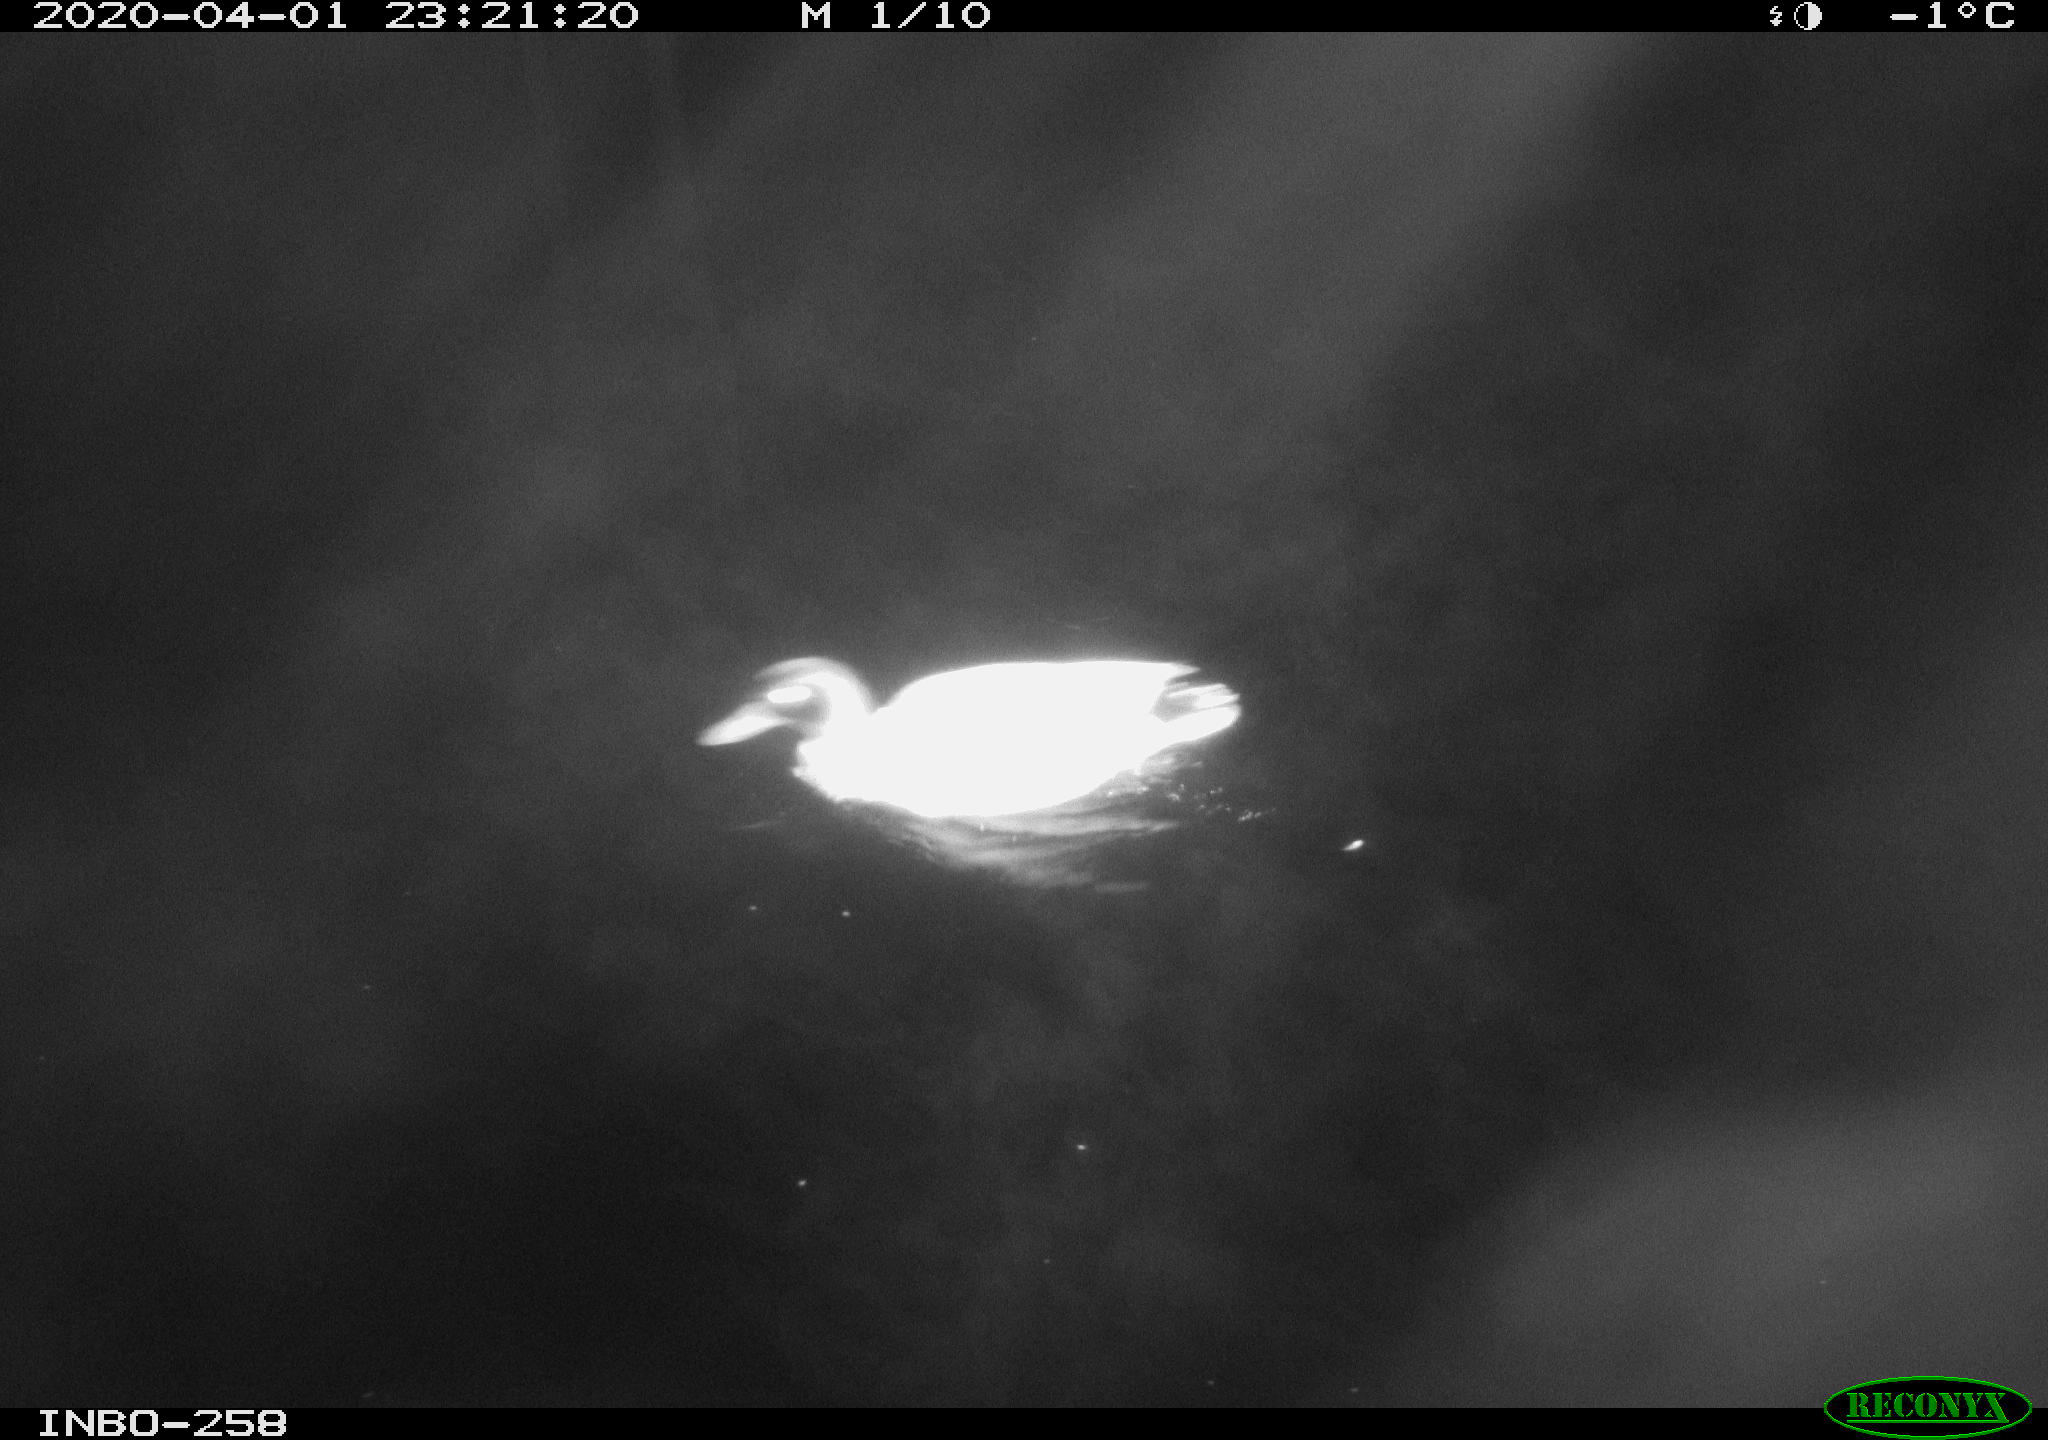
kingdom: Animalia
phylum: Chordata
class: Aves
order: Anseriformes
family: Anatidae
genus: Anas
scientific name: Anas platyrhynchos
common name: Mallard
